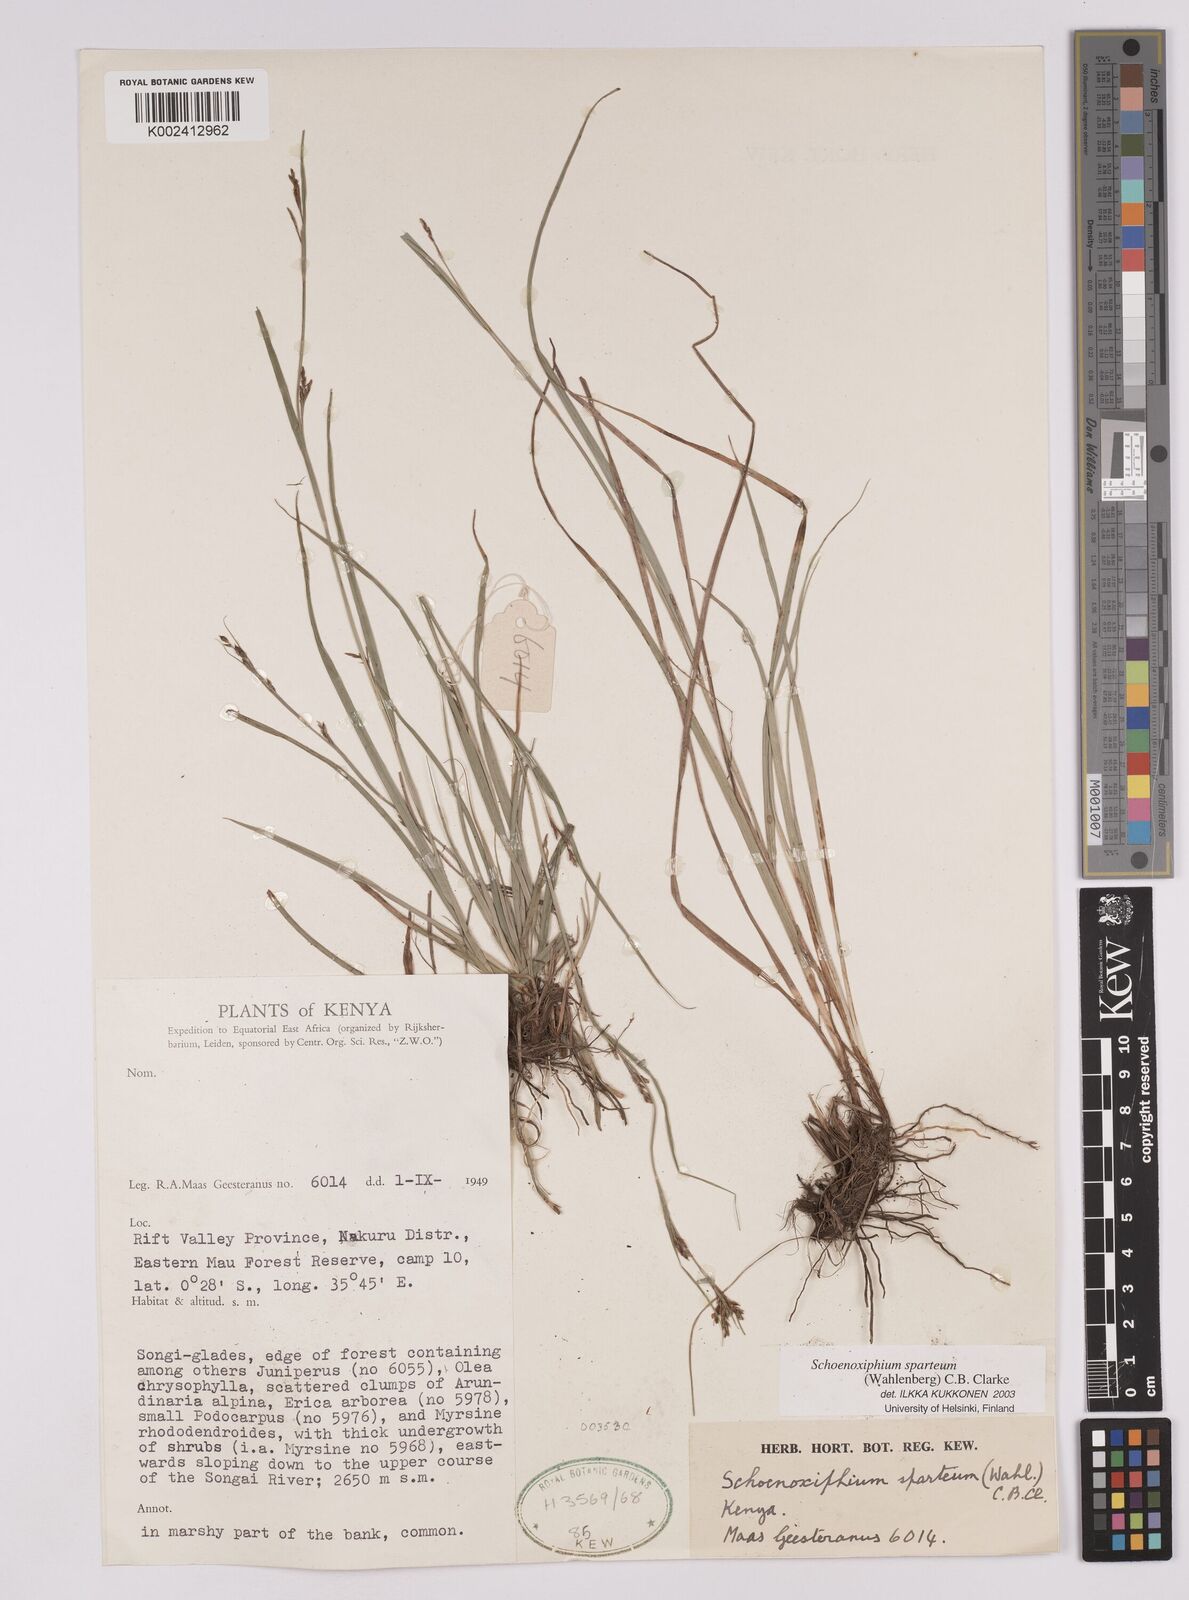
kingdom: Plantae
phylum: Tracheophyta
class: Liliopsida
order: Poales
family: Cyperaceae
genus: Carex
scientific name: Carex schimperiana
